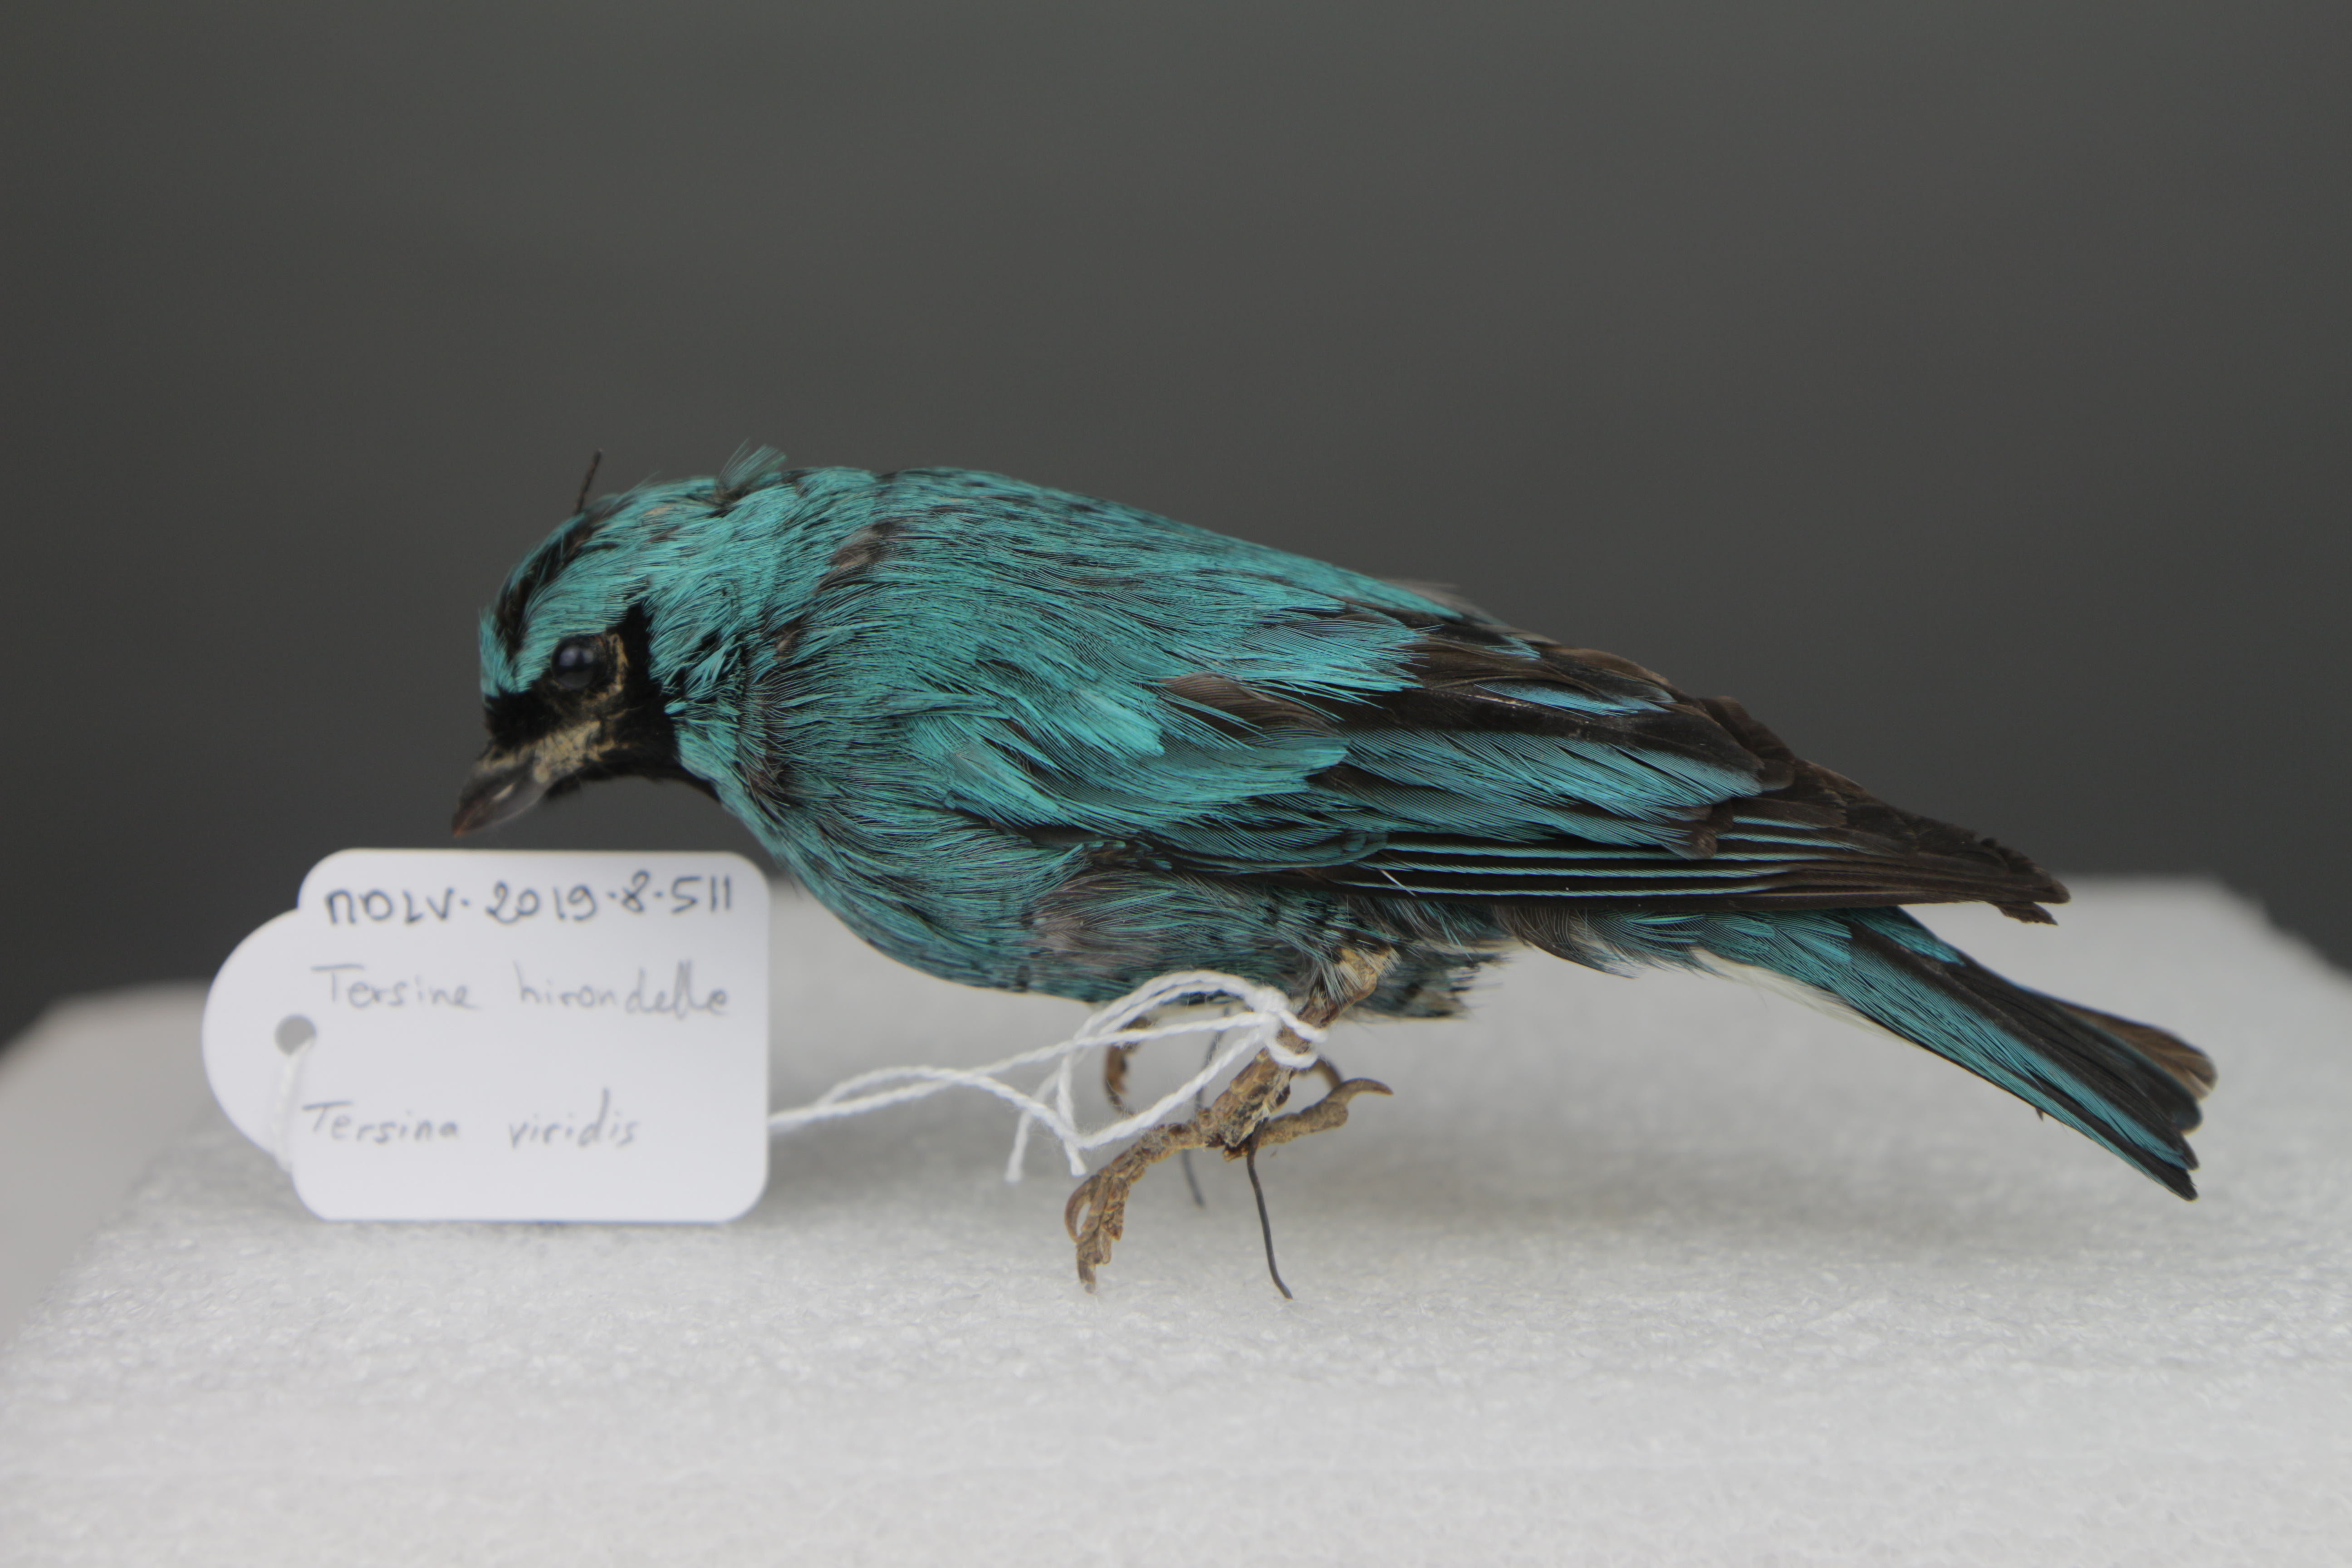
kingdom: Animalia
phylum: Chordata
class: Aves
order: Passeriformes
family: Thraupidae
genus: Tersina
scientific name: Tersina viridis
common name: Swallow tanager
